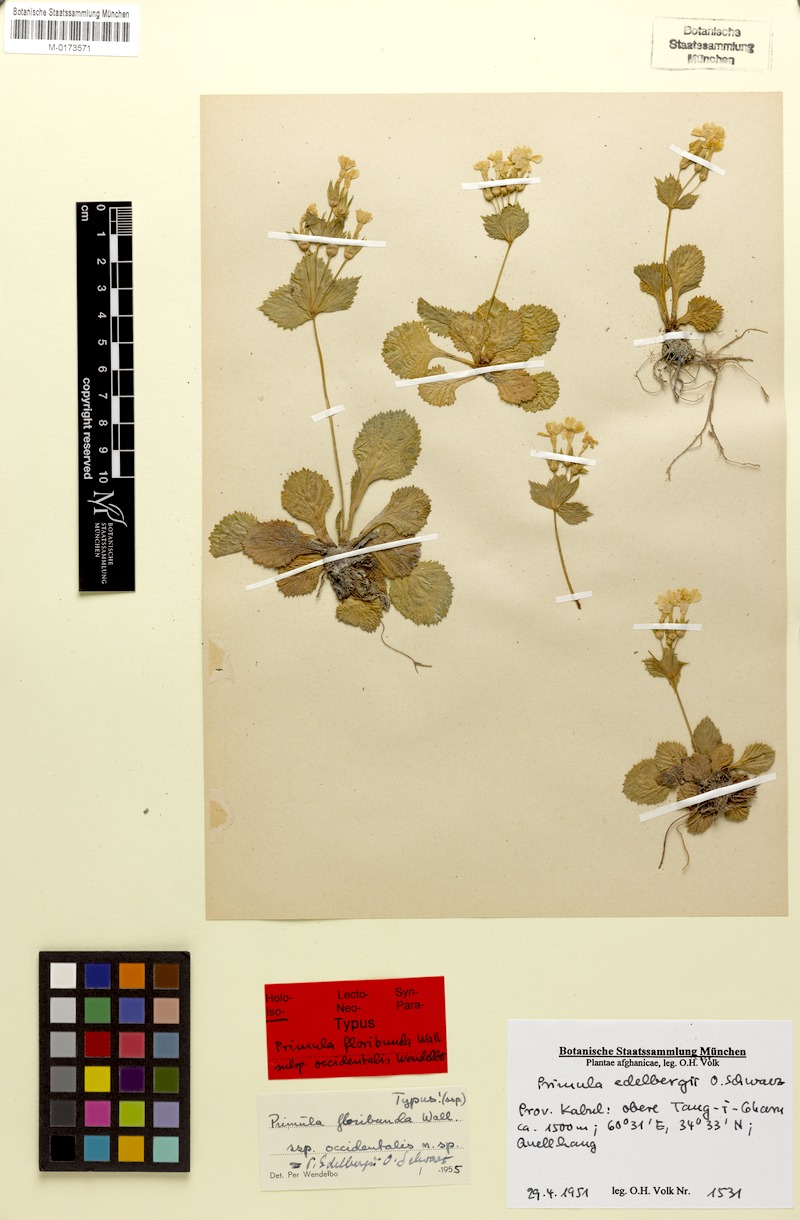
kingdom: Plantae
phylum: Tracheophyta
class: Magnoliopsida
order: Ericales
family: Primulaceae
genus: Evotrochis
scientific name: Evotrochis edelbergii
